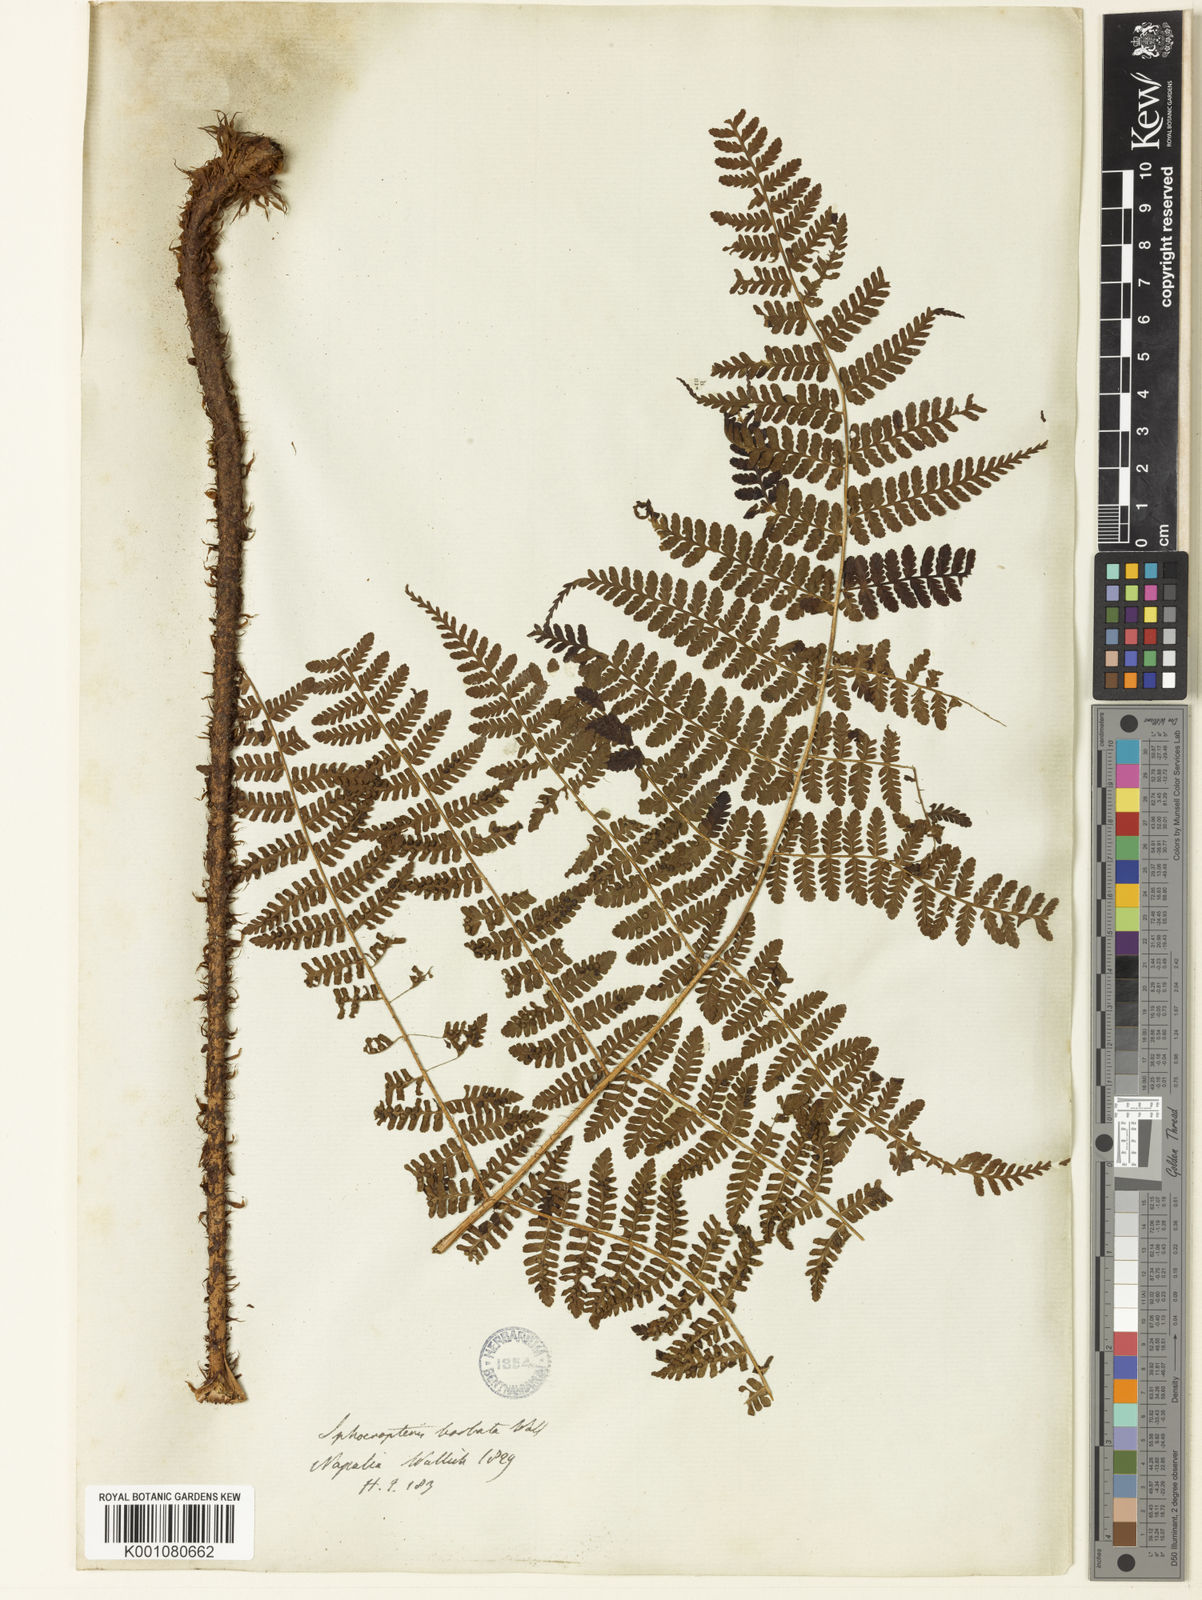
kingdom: Plantae
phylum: Tracheophyta
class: Polypodiopsida
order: Polypodiales
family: Dryopteridaceae
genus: Dryopteris
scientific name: Dryopteris peranema
